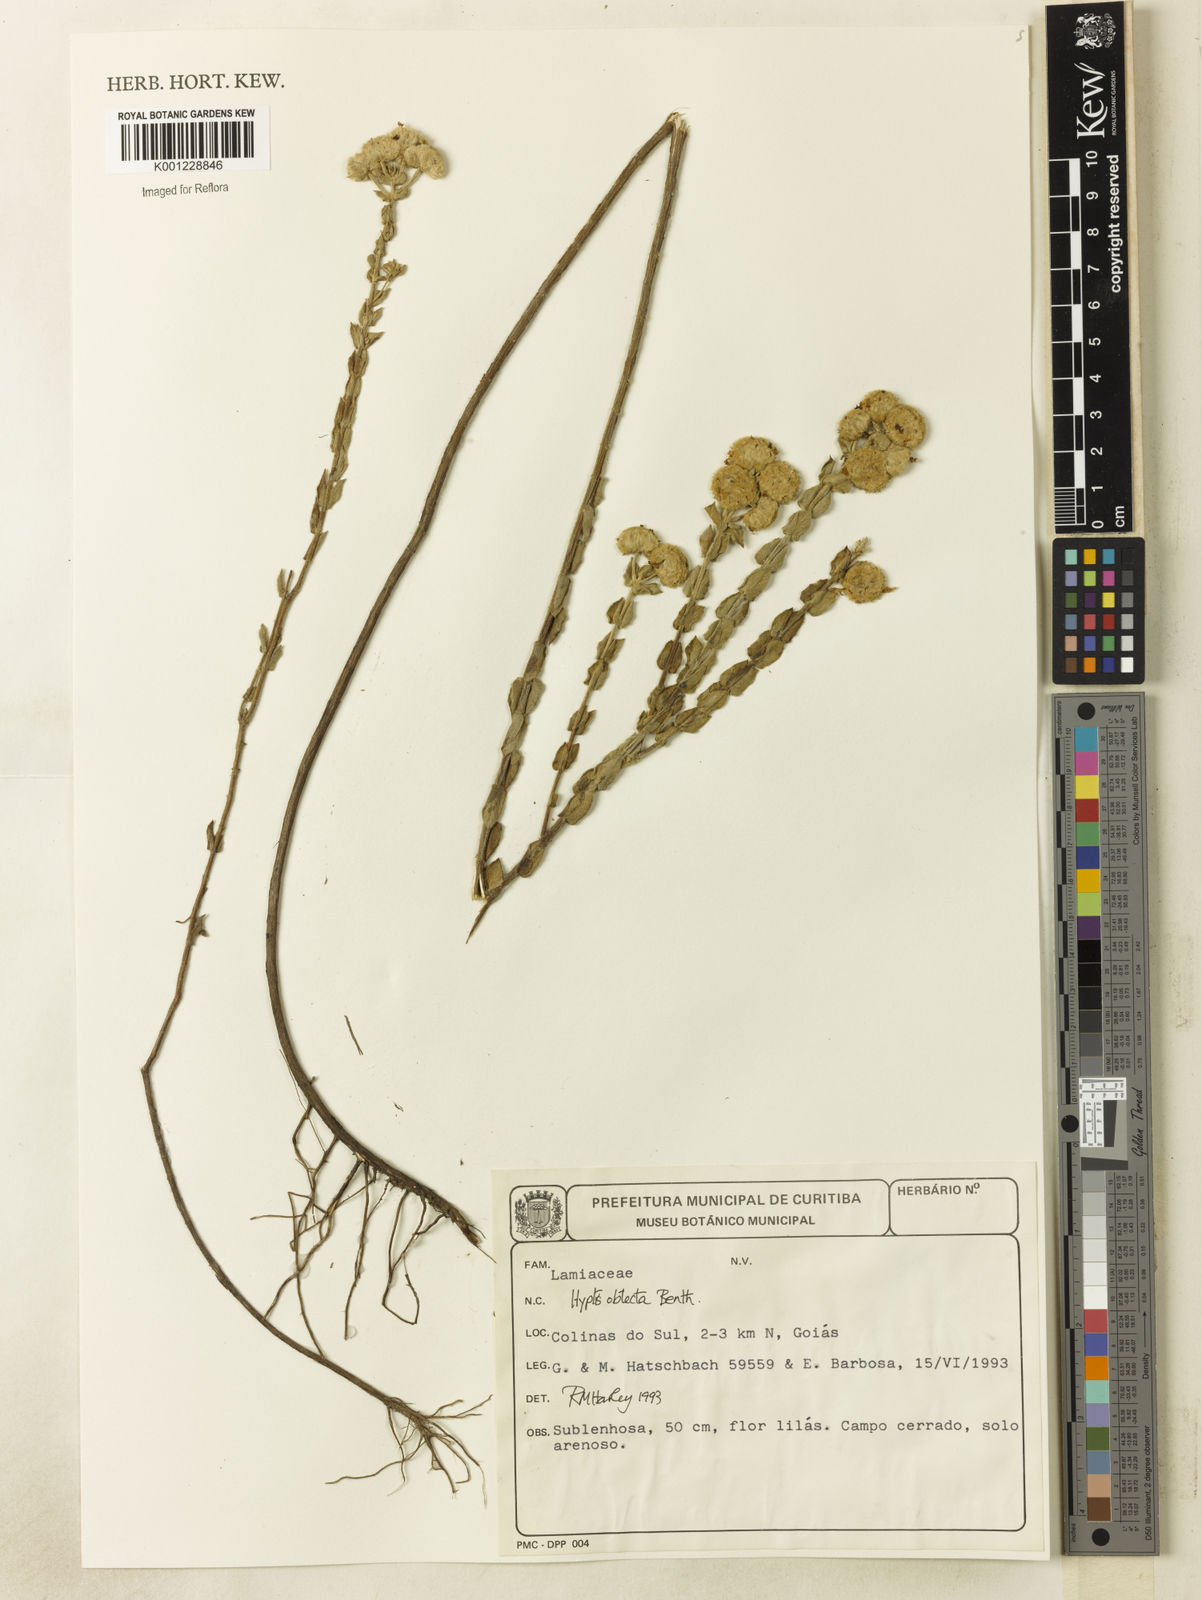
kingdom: Plantae
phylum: Tracheophyta
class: Magnoliopsida
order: Lamiales
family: Lamiaceae
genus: Hyptis
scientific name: Hyptis obtecta
